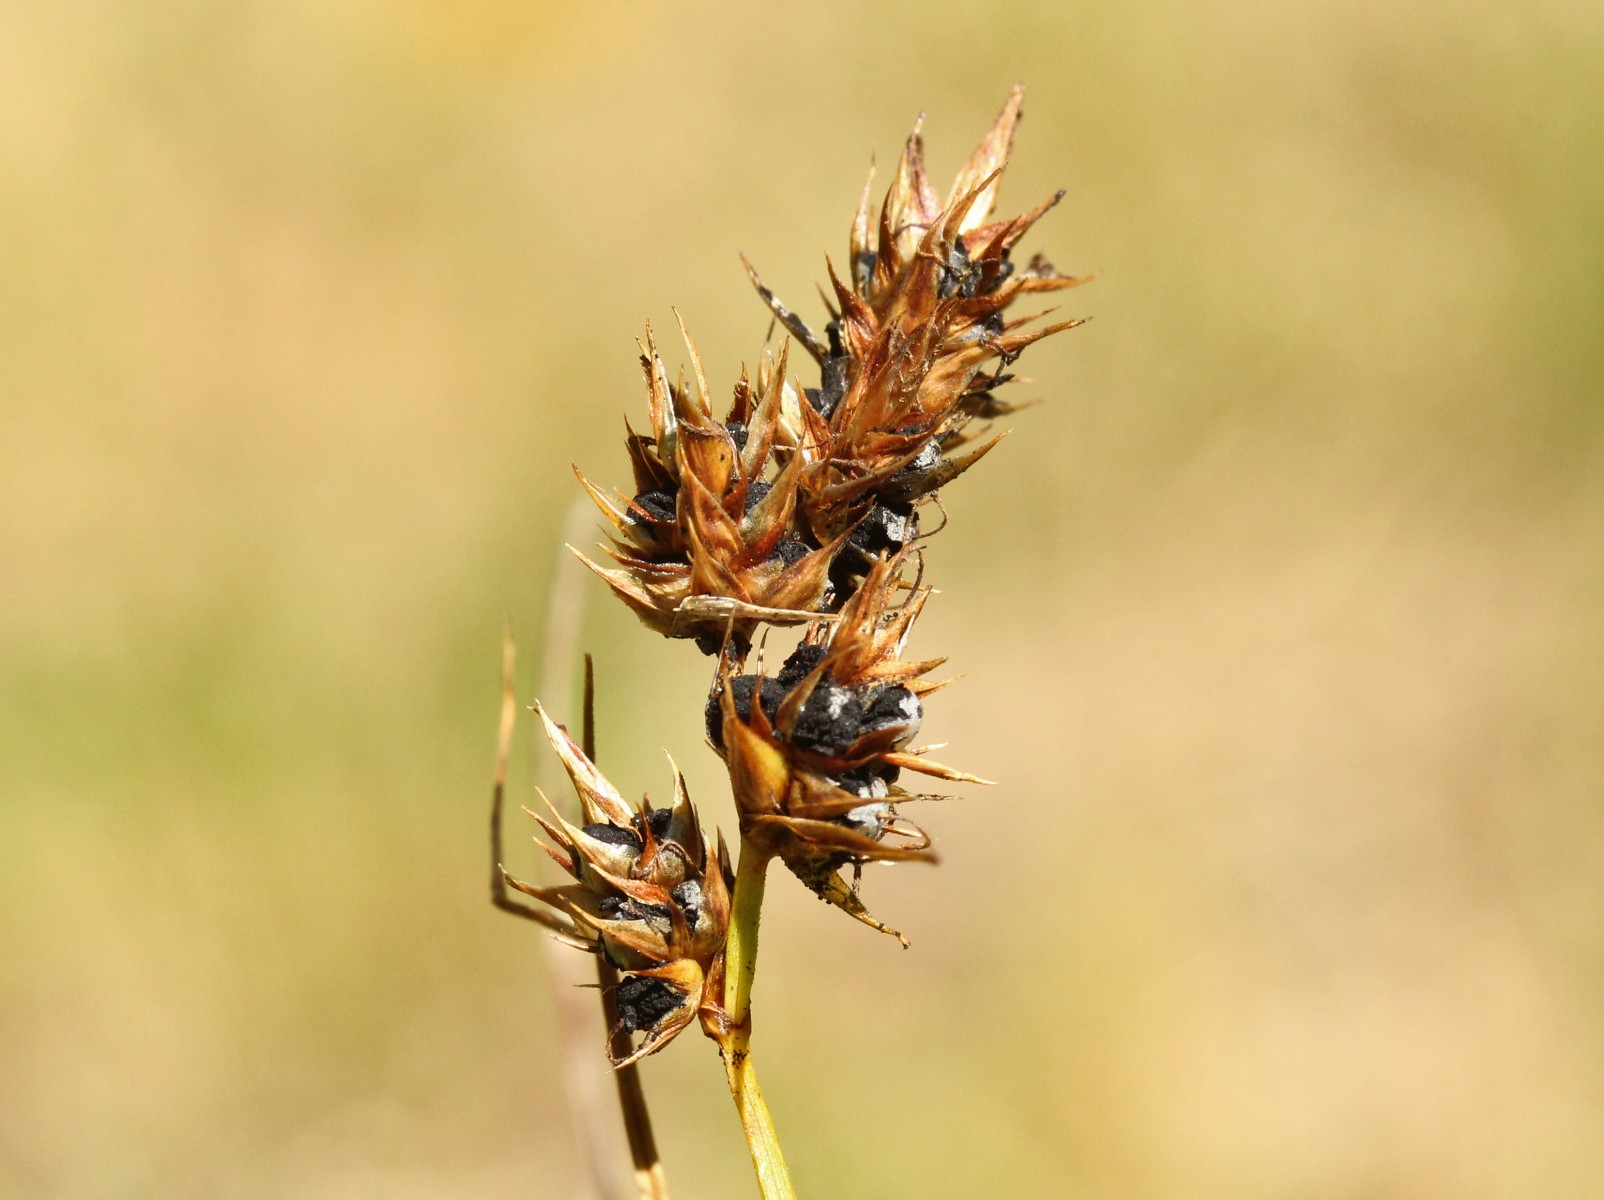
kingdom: Fungi
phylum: Basidiomycota
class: Ustilaginomycetes
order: Ustilaginales
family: Anthracoideaceae
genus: Anthracoidea
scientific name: Anthracoidea arenariae
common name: sandstar-brand
